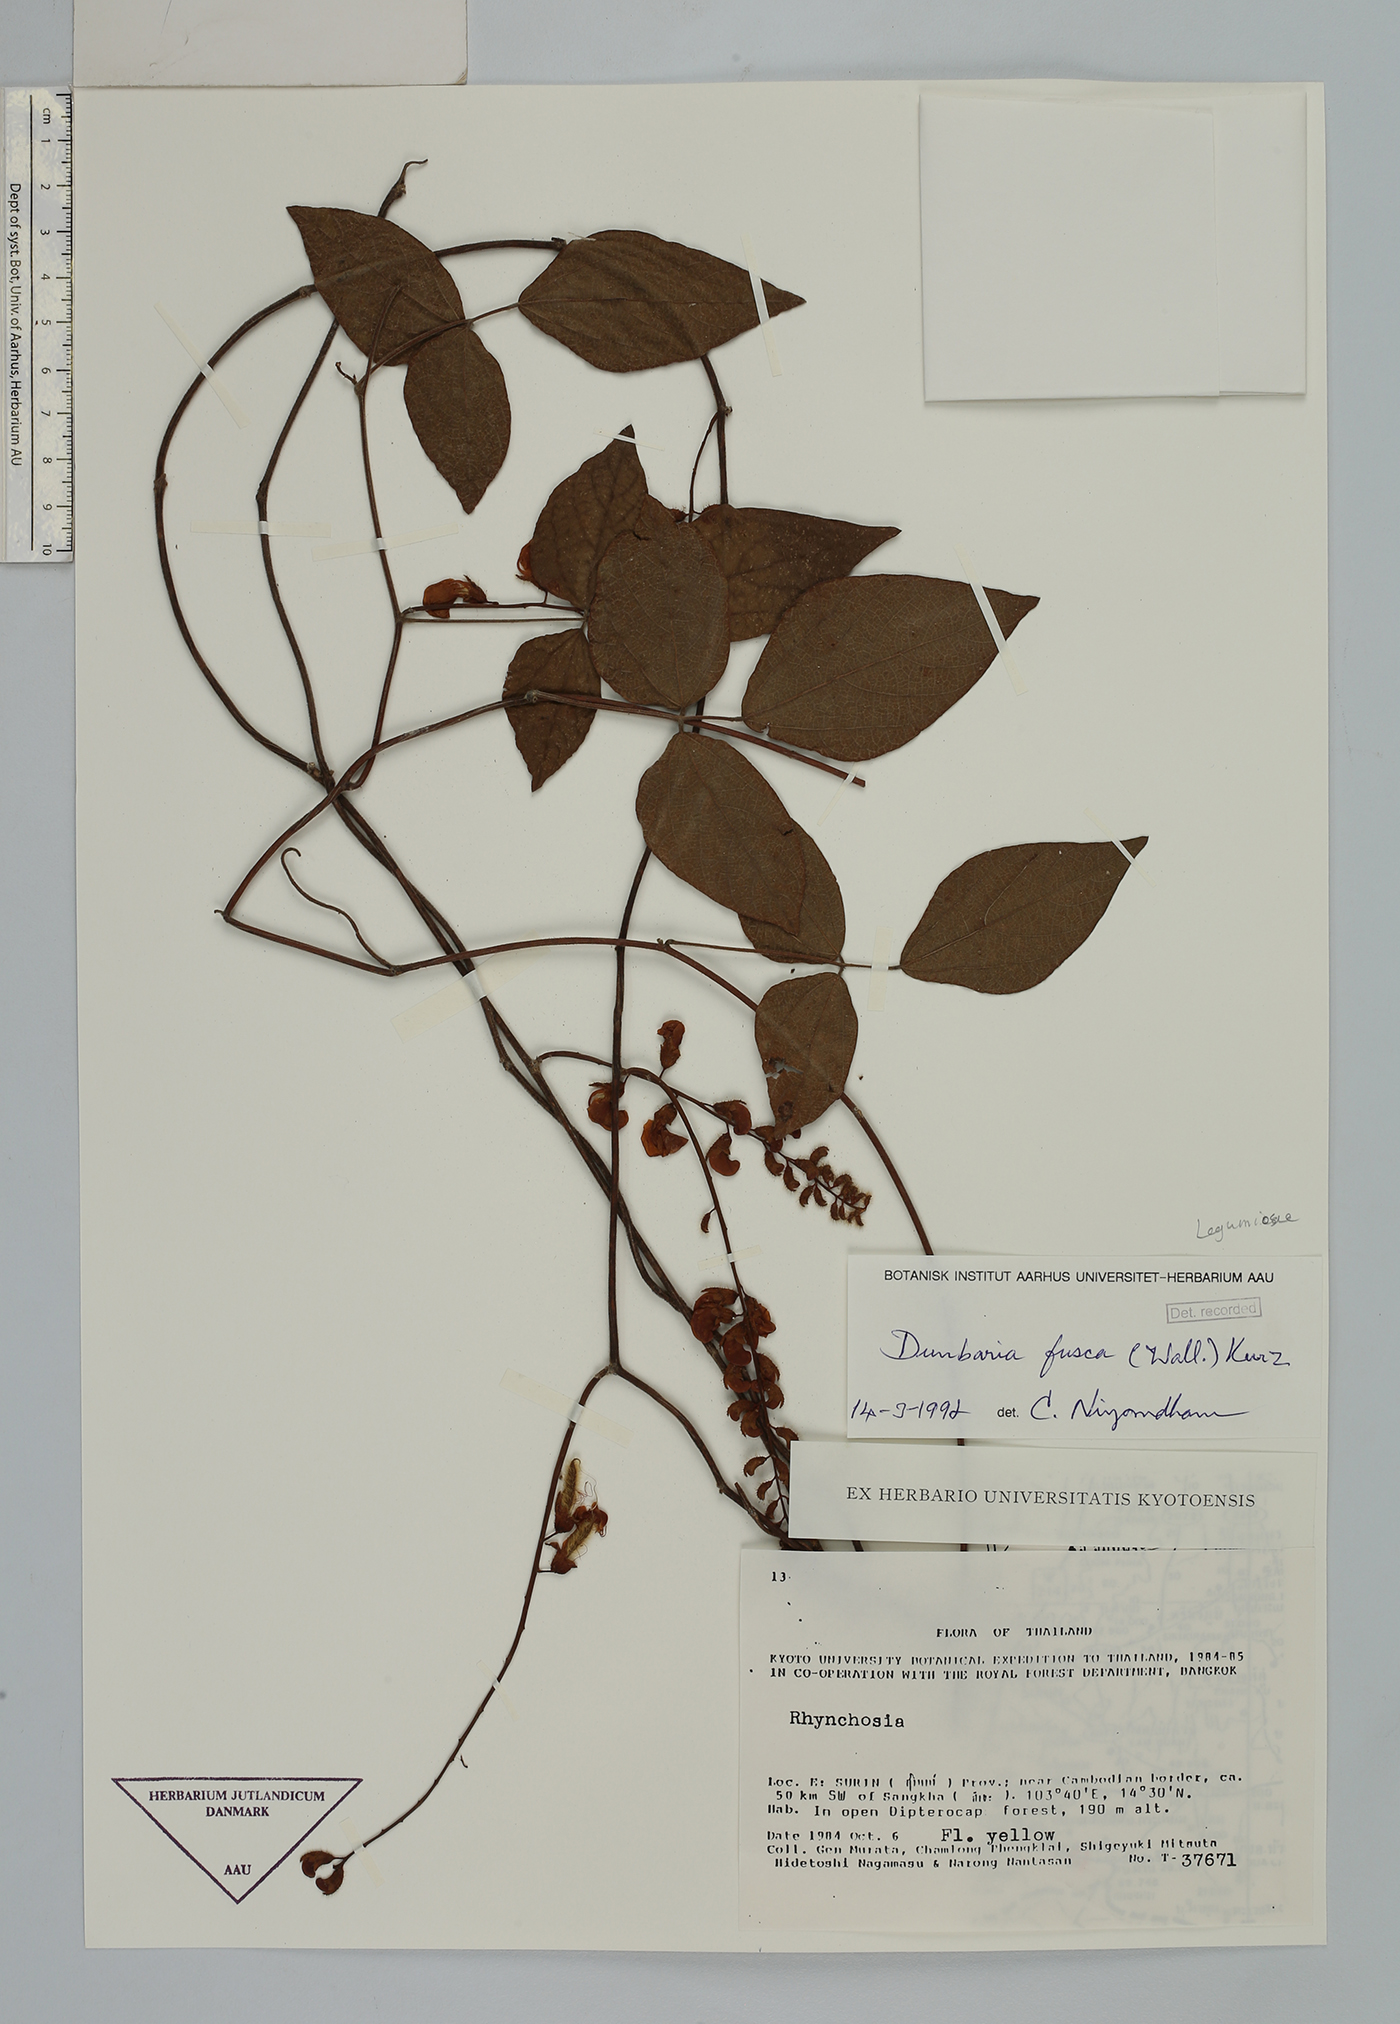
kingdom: Plantae
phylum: Tracheophyta
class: Magnoliopsida
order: Fabales
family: Fabaceae
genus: Dunbaria
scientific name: Dunbaria fusca
